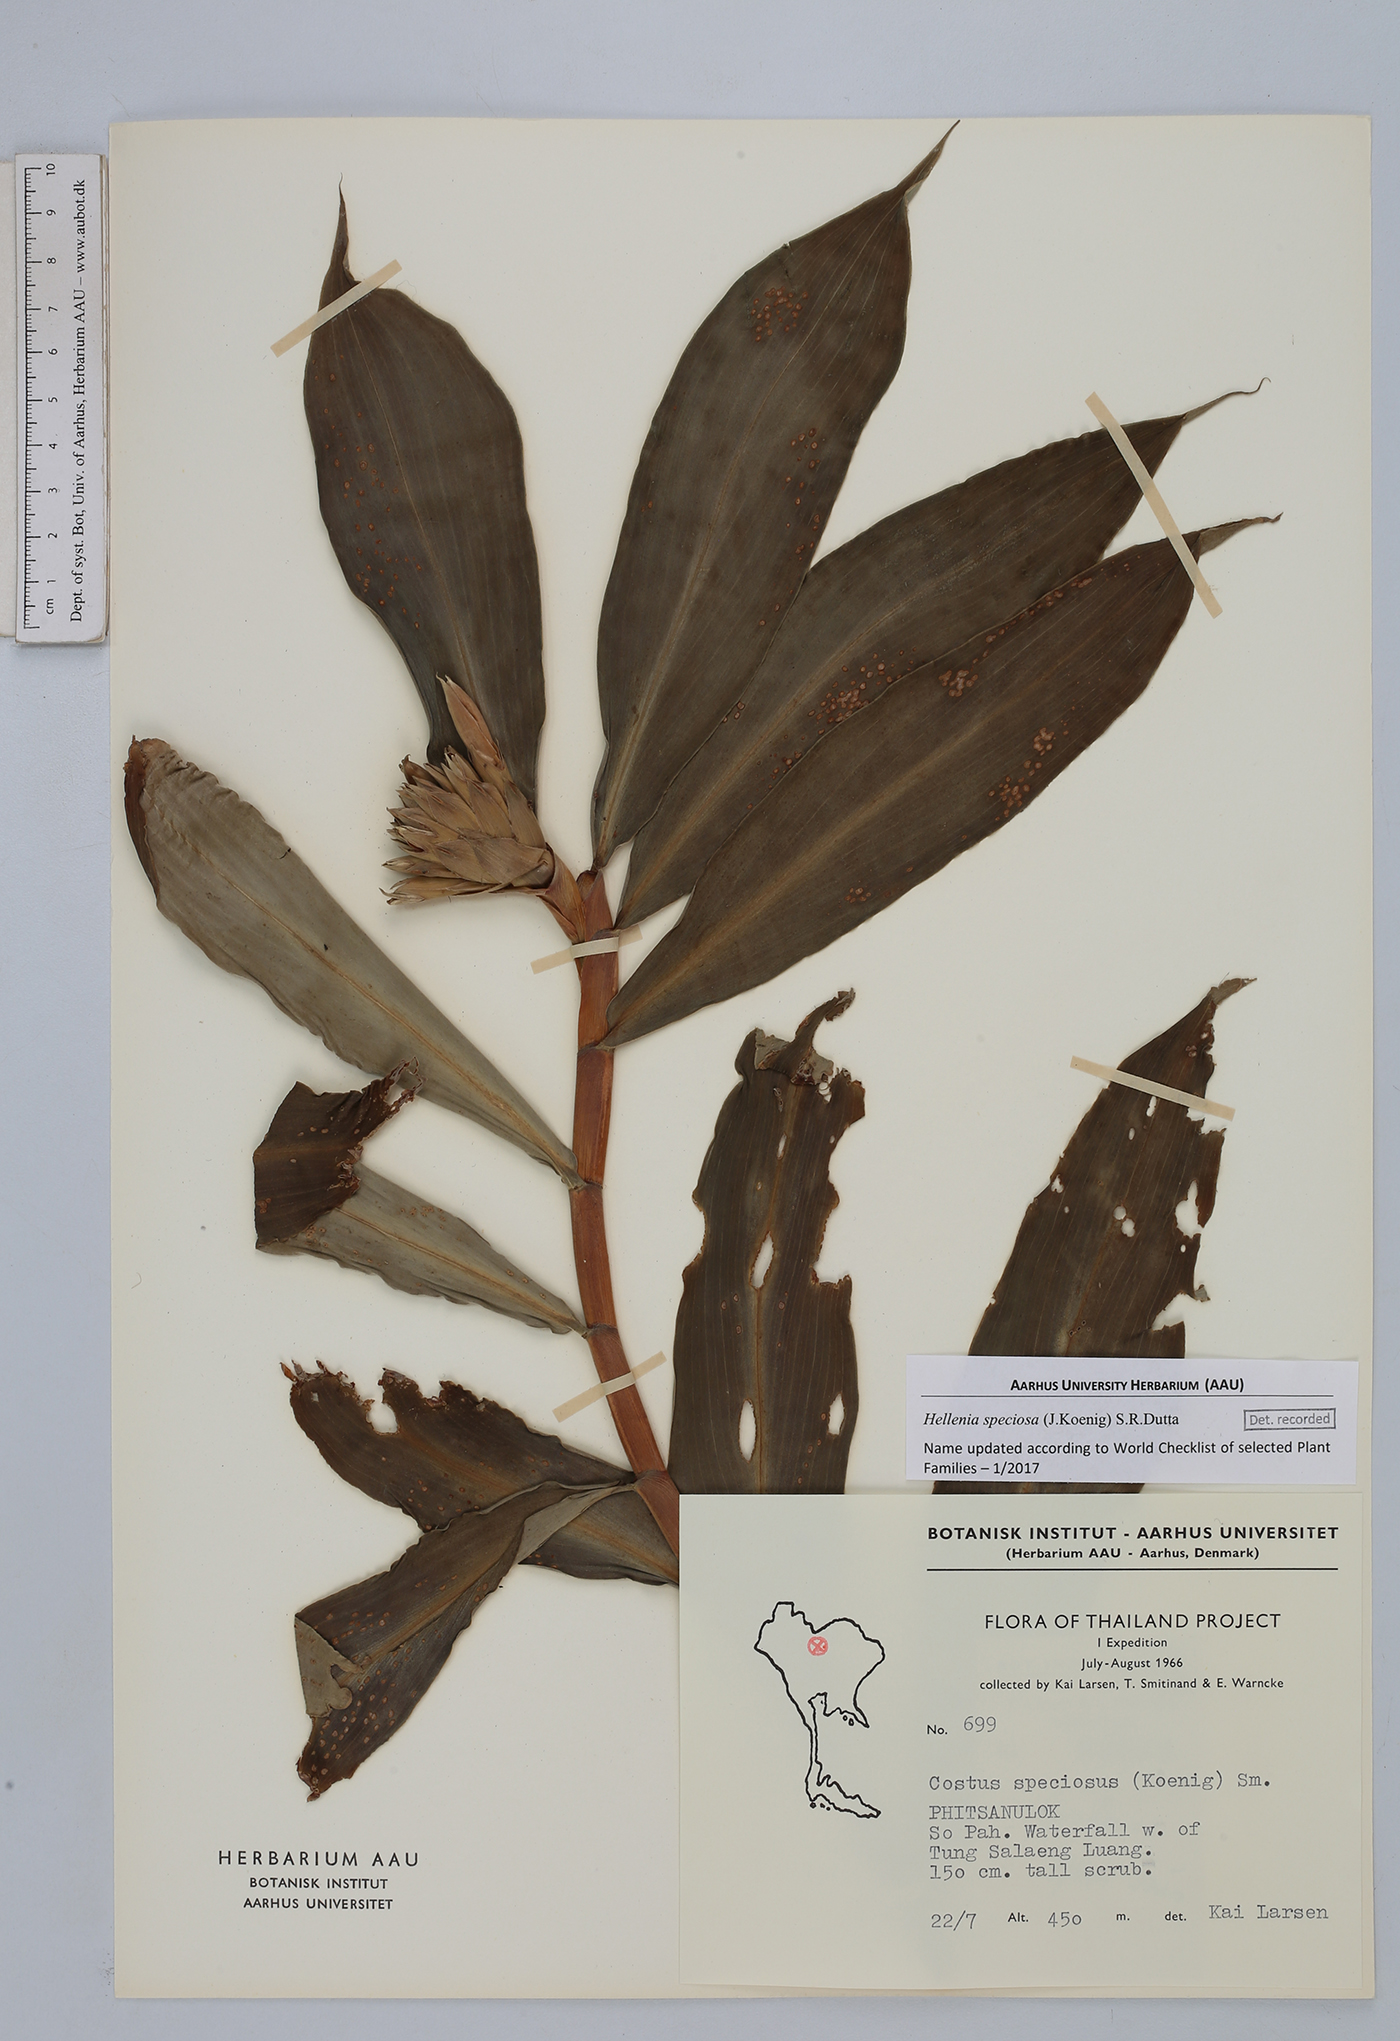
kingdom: Plantae
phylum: Tracheophyta
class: Liliopsida
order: Zingiberales
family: Costaceae
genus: Hellenia
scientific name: Hellenia speciosa
